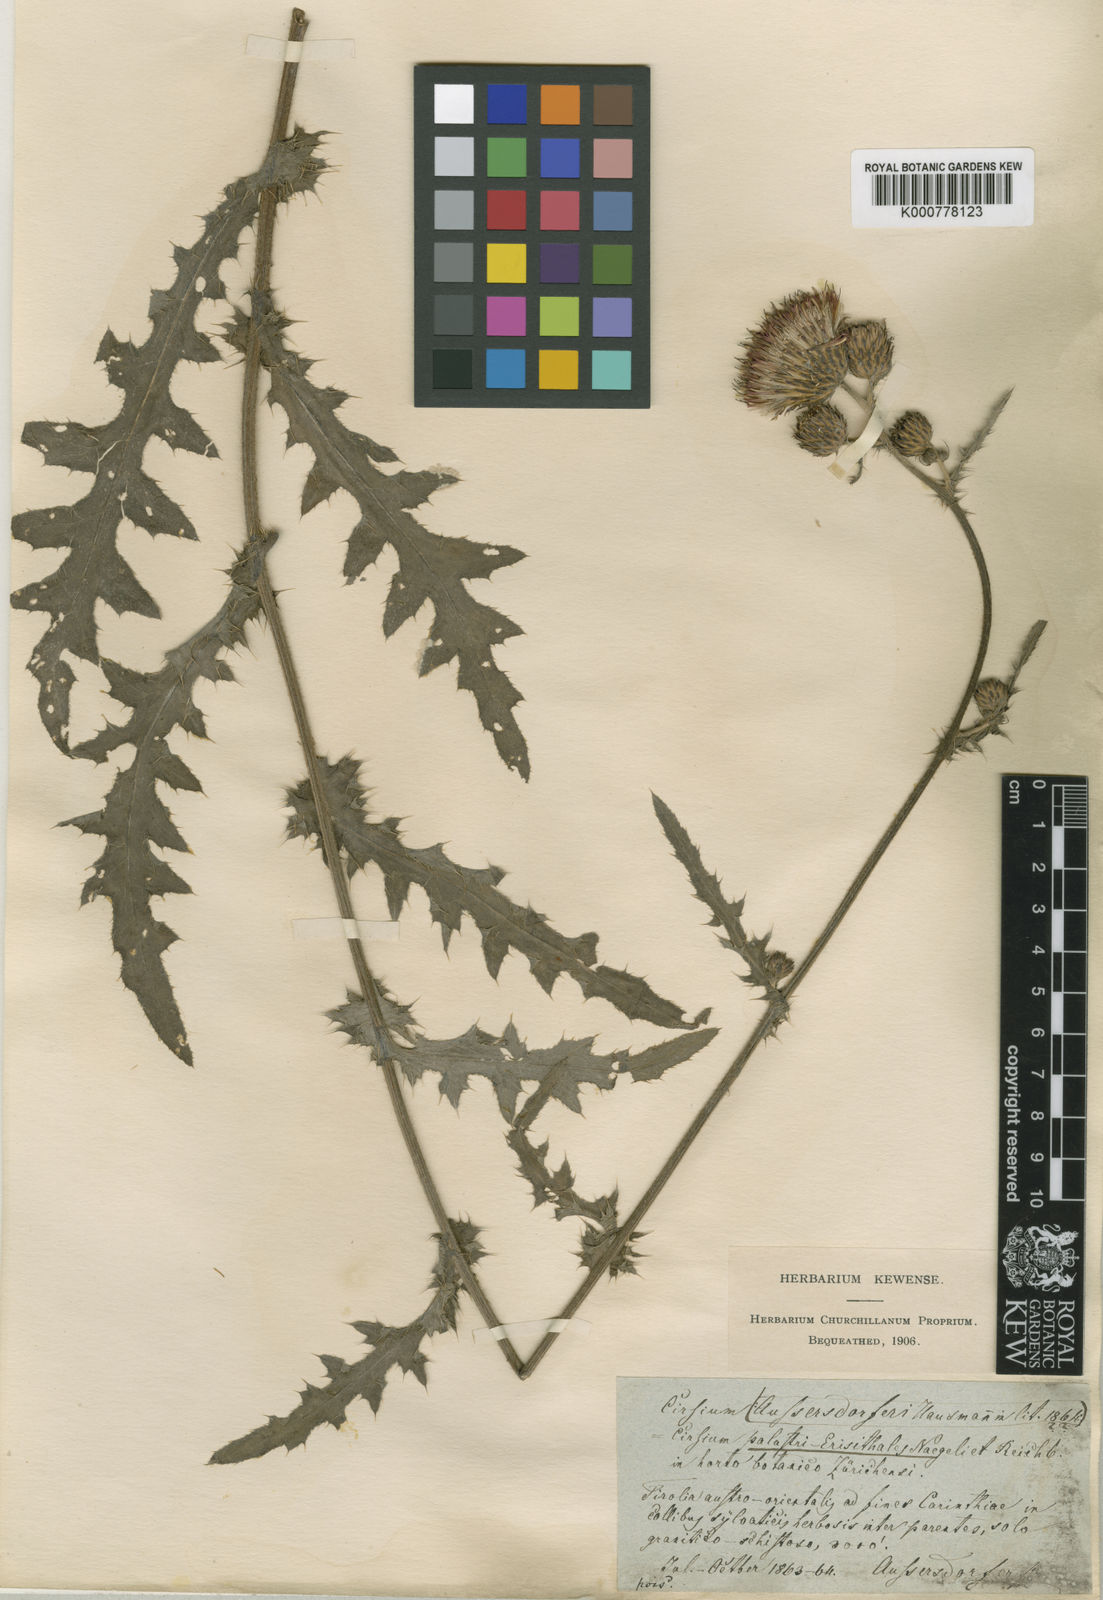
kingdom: Plantae
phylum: Tracheophyta
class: Magnoliopsida
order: Asterales
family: Asteraceae
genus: Cirsium
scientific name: Cirsium
